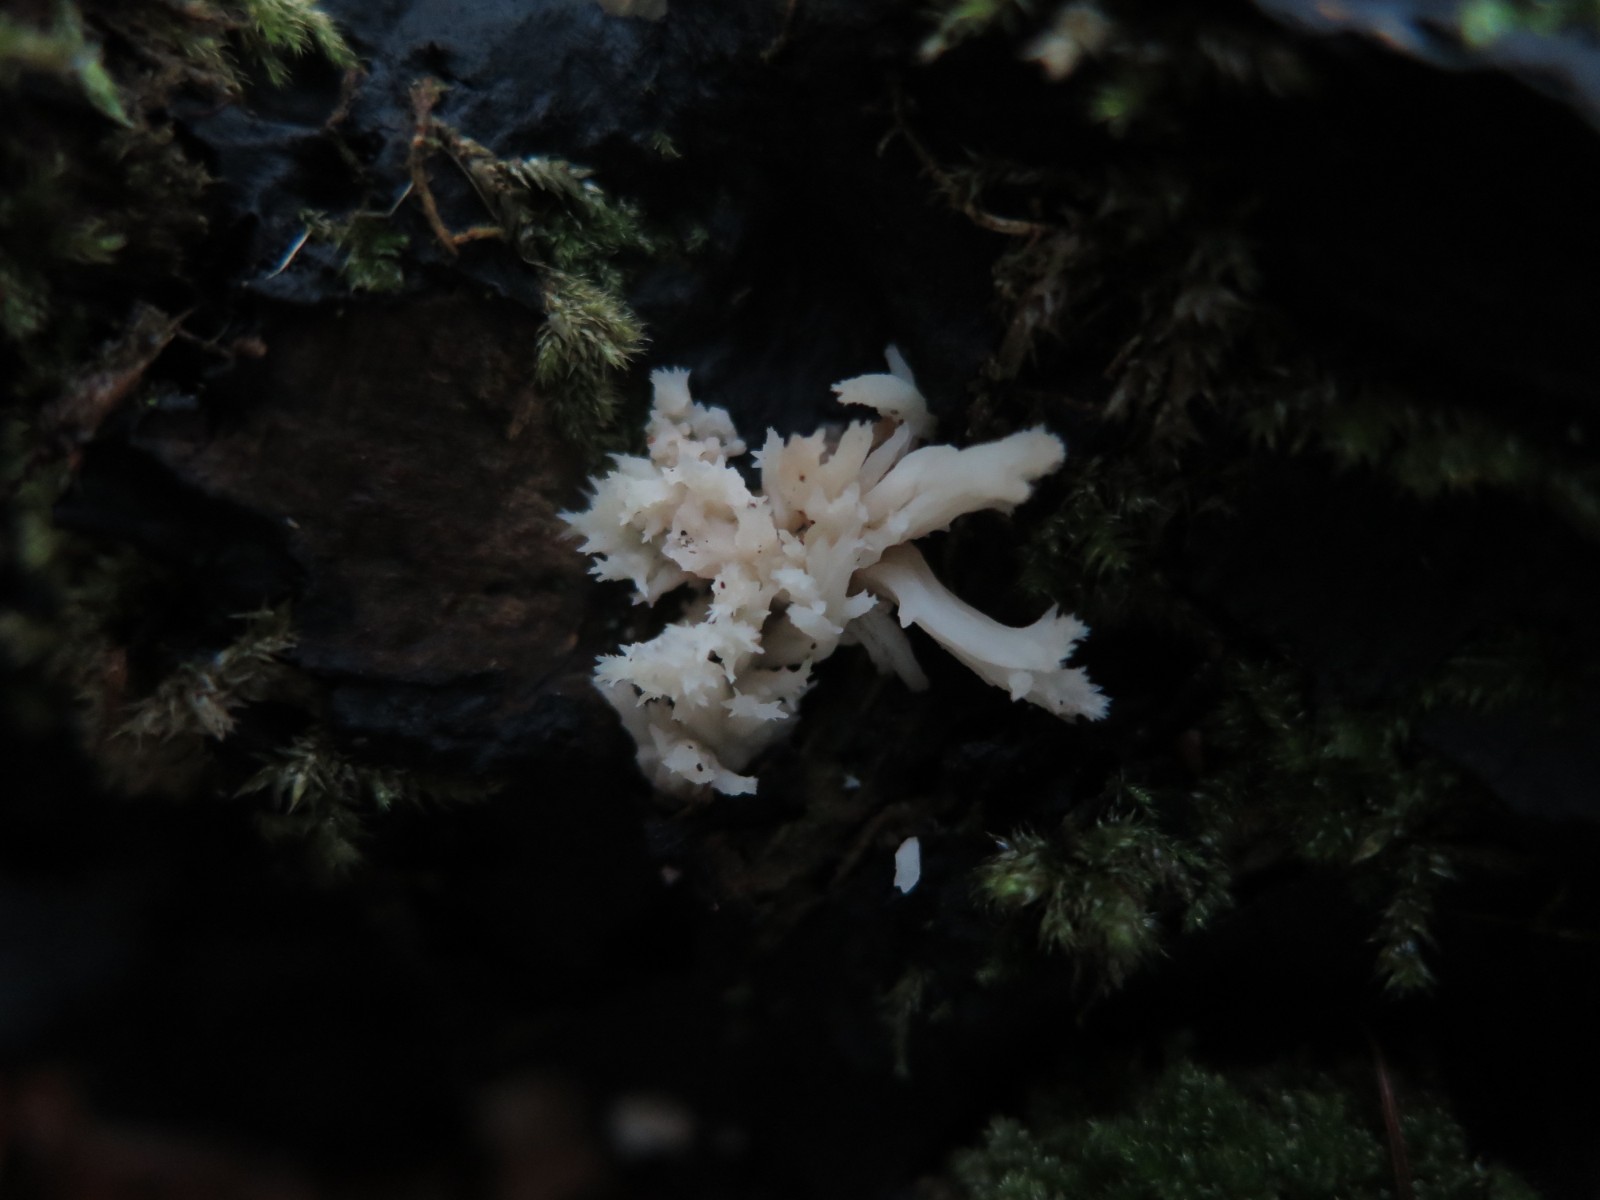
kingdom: Fungi
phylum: Basidiomycota
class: Agaricomycetes
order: Cantharellales
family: Hydnaceae
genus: Clavulina
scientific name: Clavulina
